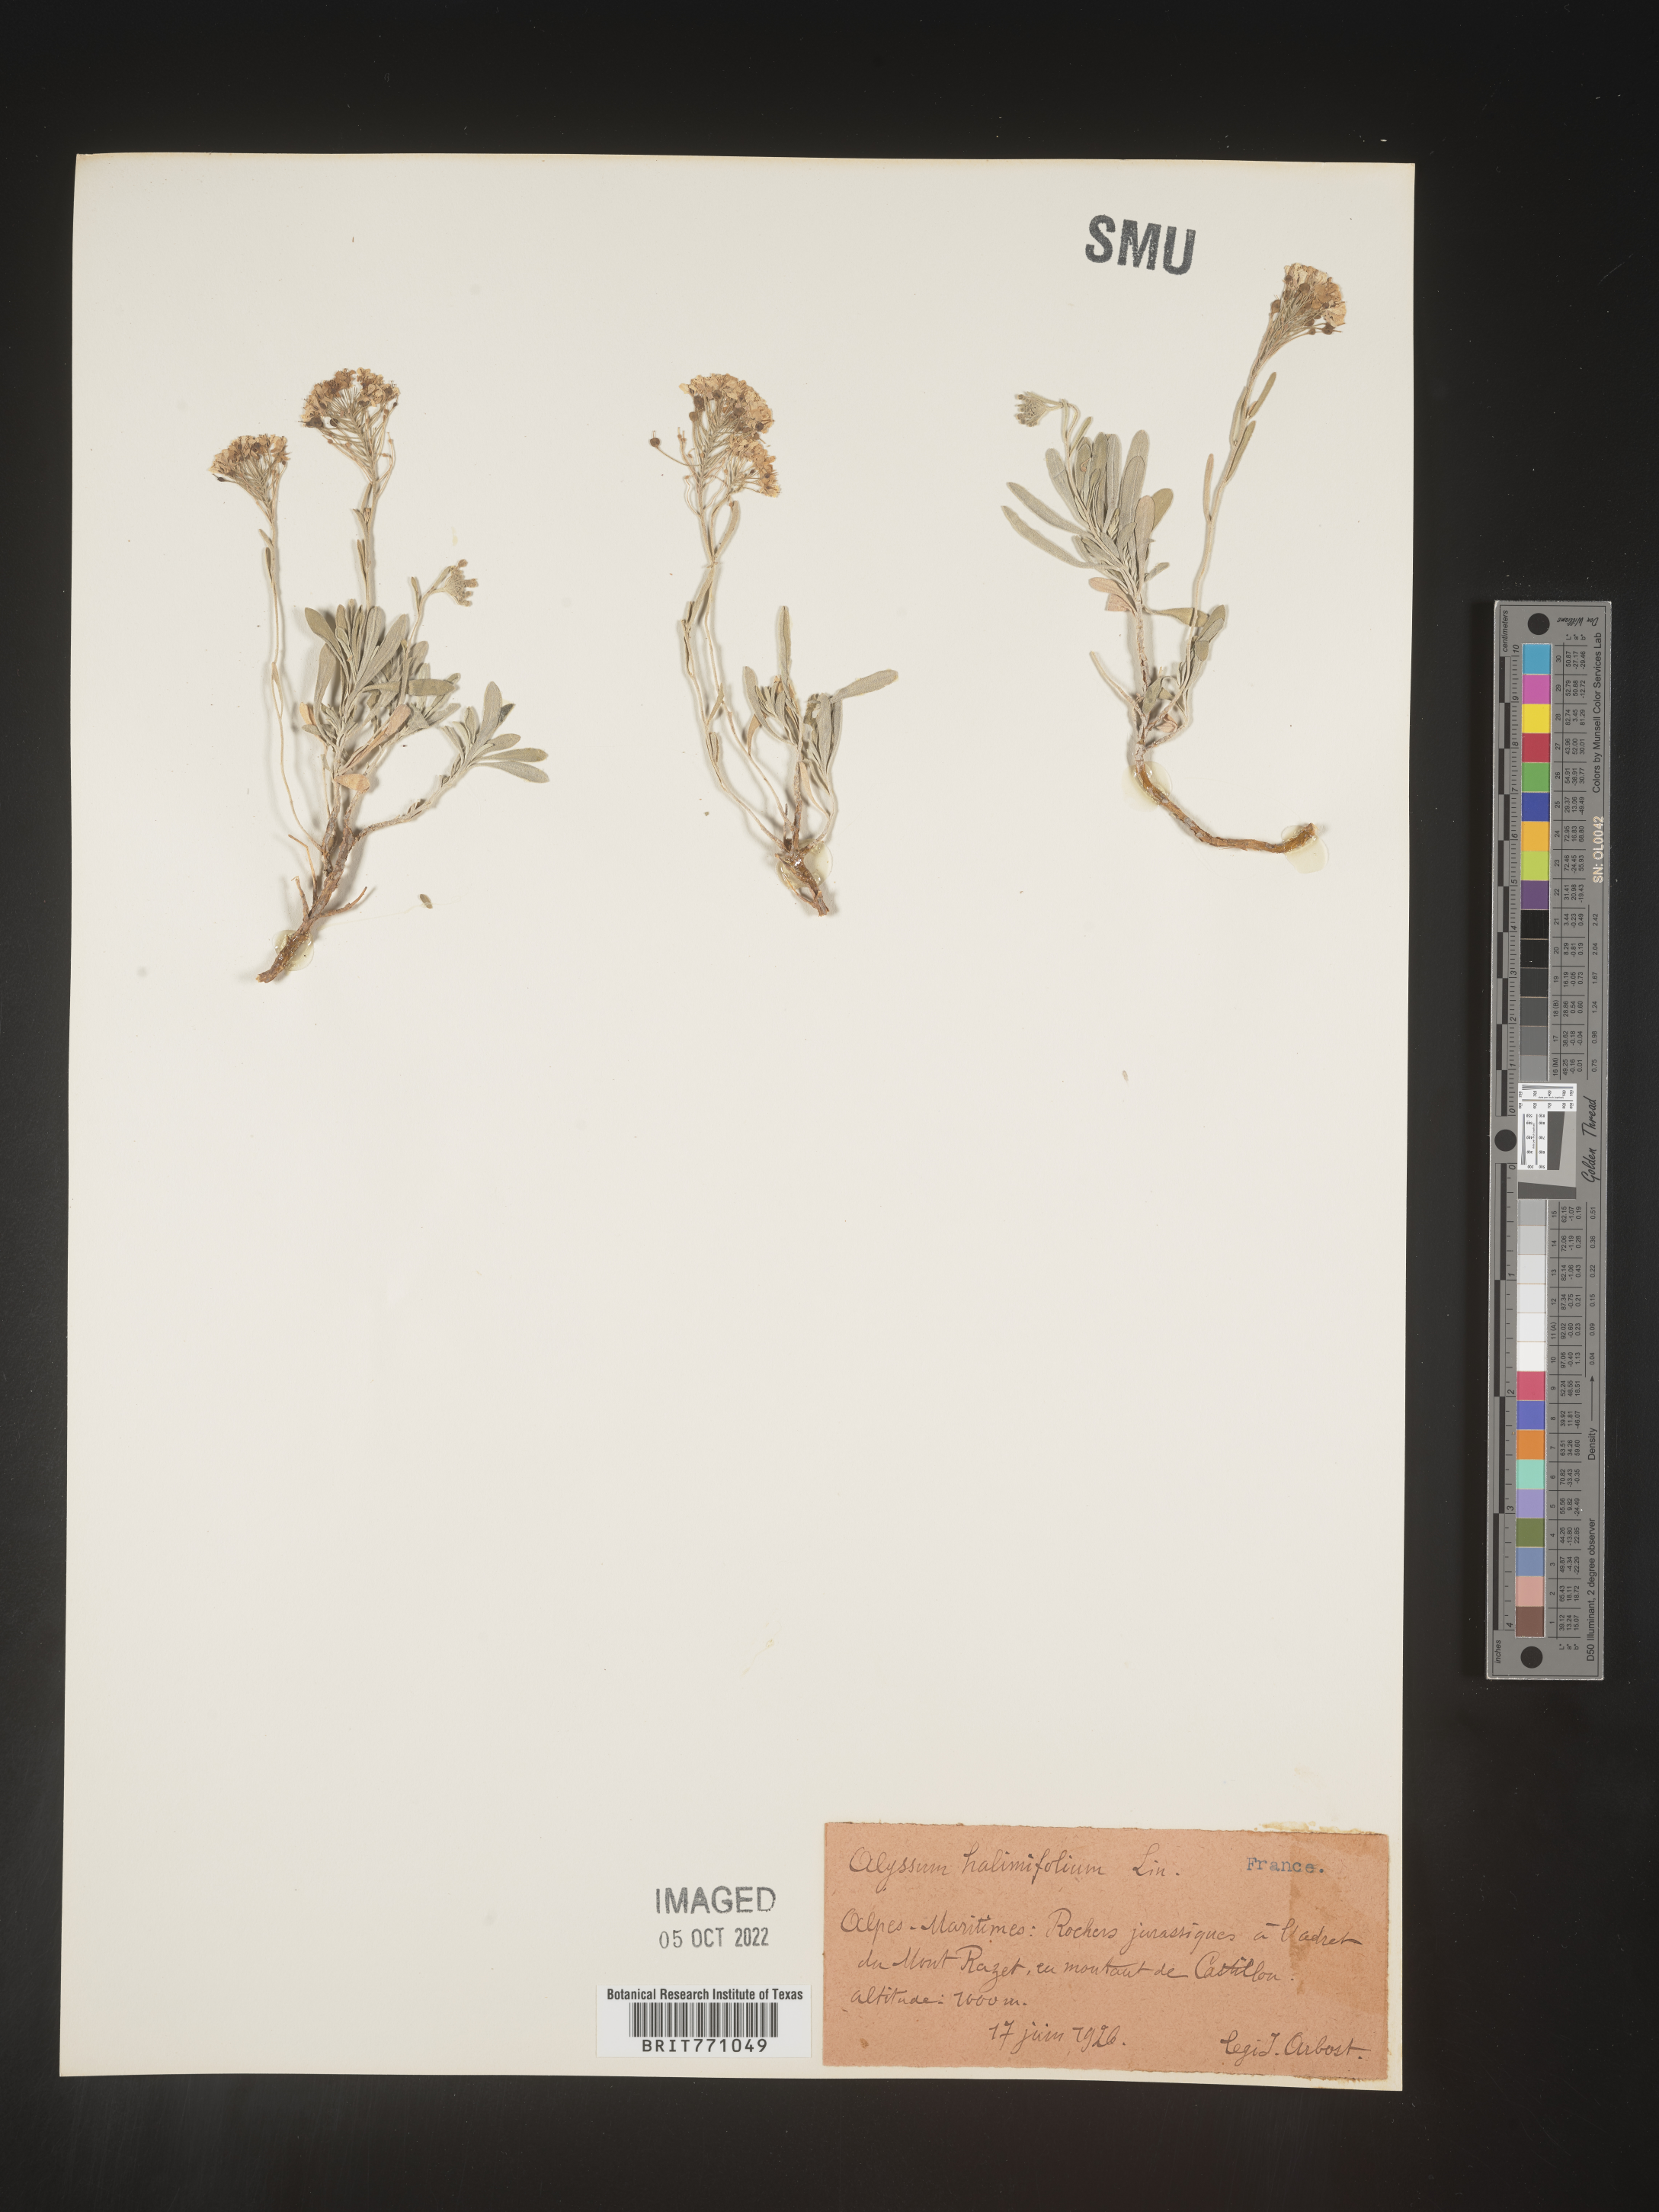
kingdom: Plantae
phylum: Tracheophyta
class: Magnoliopsida
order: Brassicales
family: Brassicaceae
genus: Alyssum
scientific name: Alyssum
